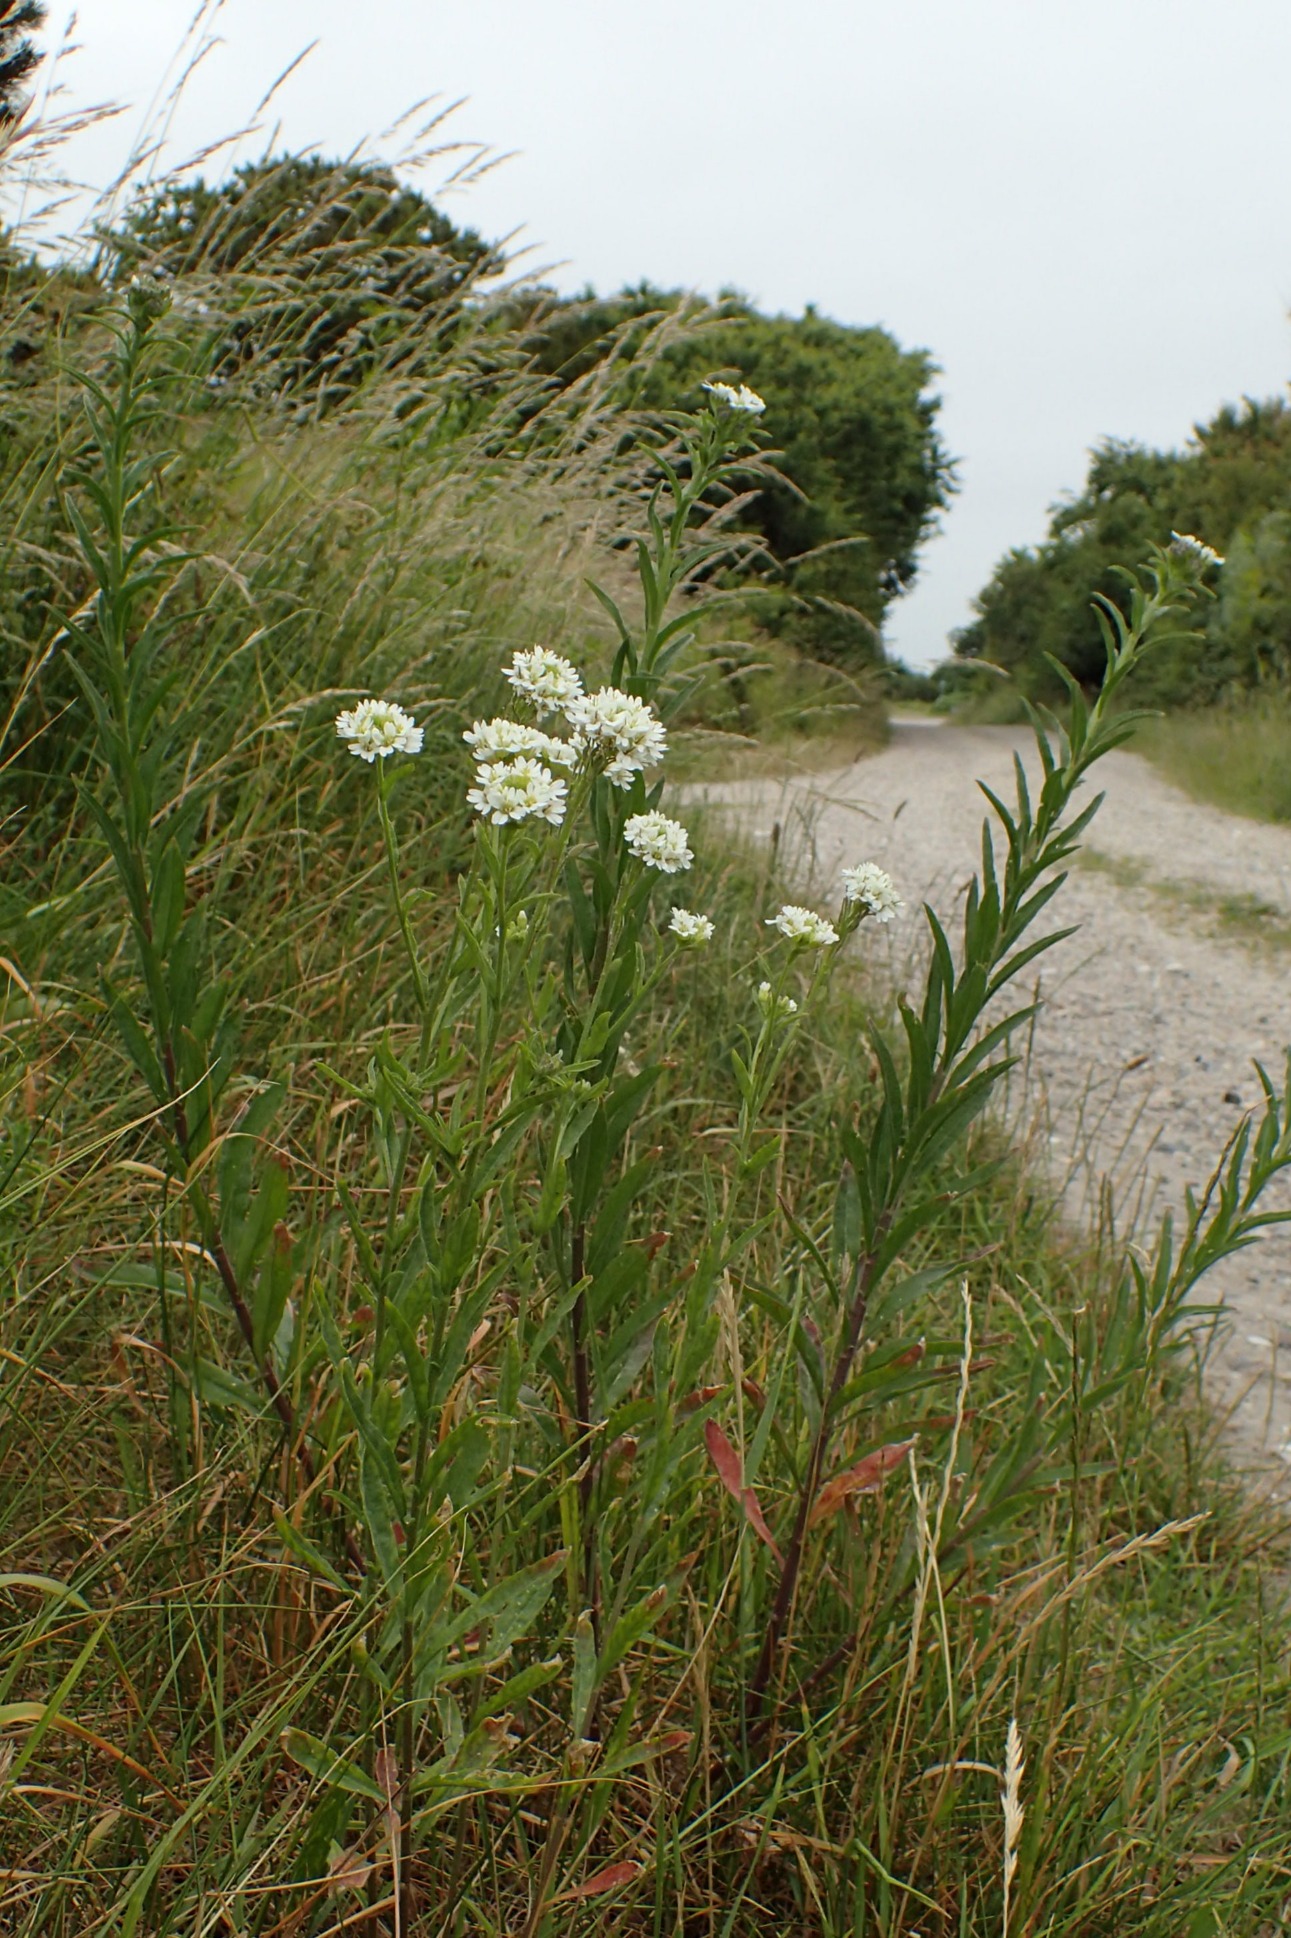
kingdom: Plantae
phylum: Tracheophyta
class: Magnoliopsida
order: Brassicales
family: Brassicaceae
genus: Berteroa
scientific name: Berteroa incana
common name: Kløvplade
